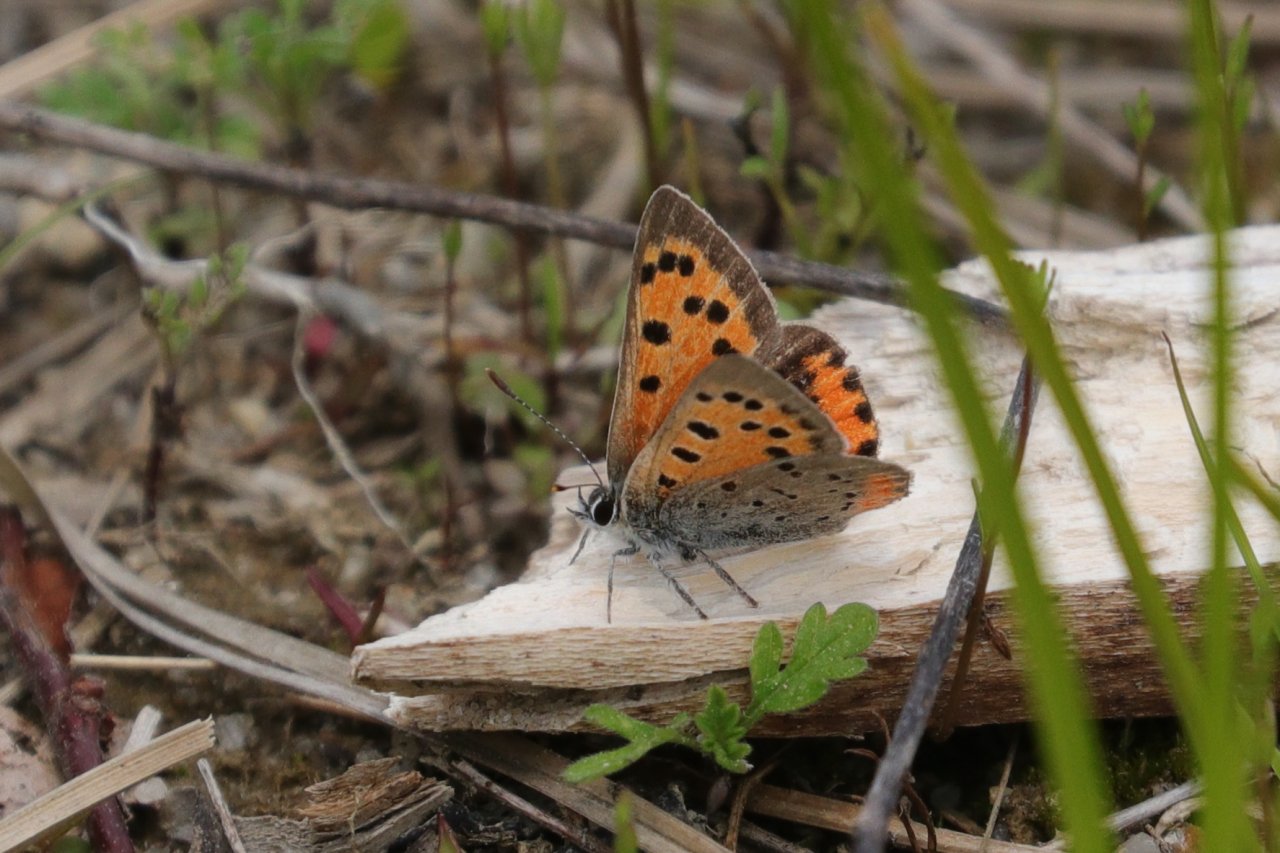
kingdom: Animalia
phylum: Arthropoda
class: Insecta
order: Lepidoptera
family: Lycaenidae
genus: Lycaena
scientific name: Lycaena phlaeas
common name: American Copper
